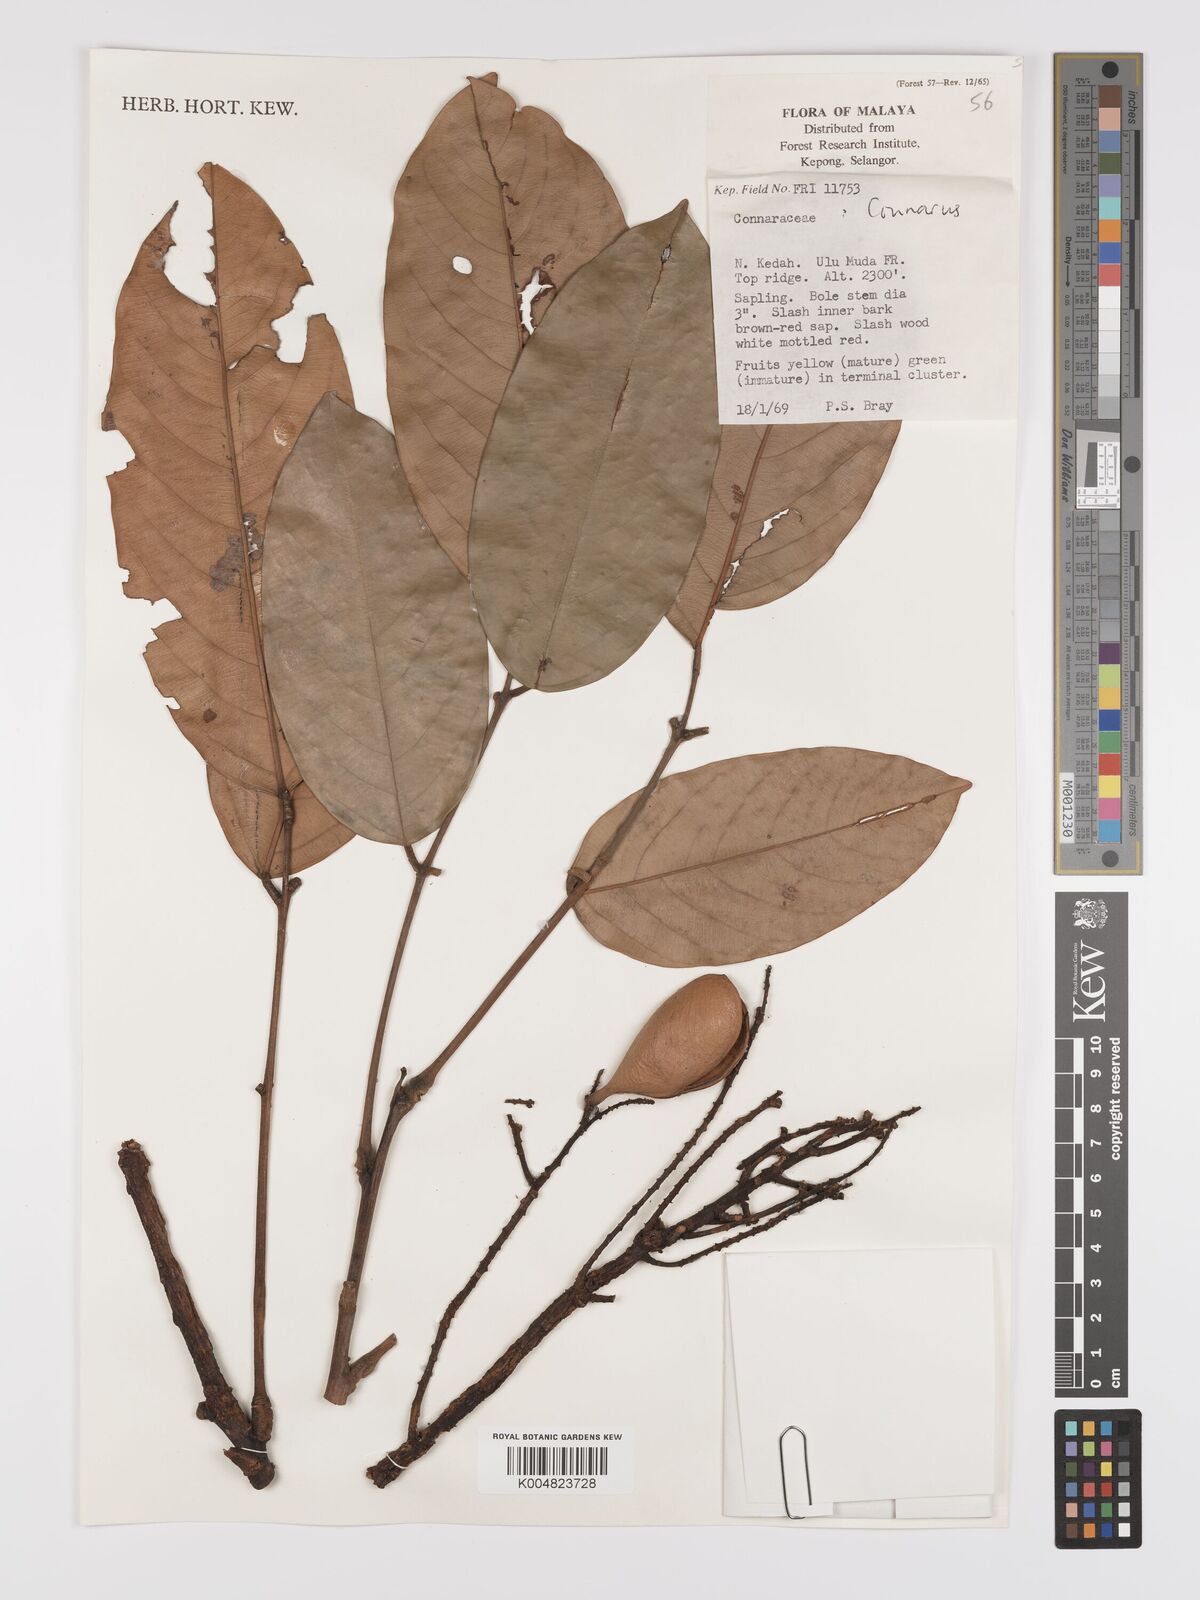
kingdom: Plantae
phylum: Tracheophyta
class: Magnoliopsida
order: Oxalidales
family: Connaraceae
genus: Connarus
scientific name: Connarus
